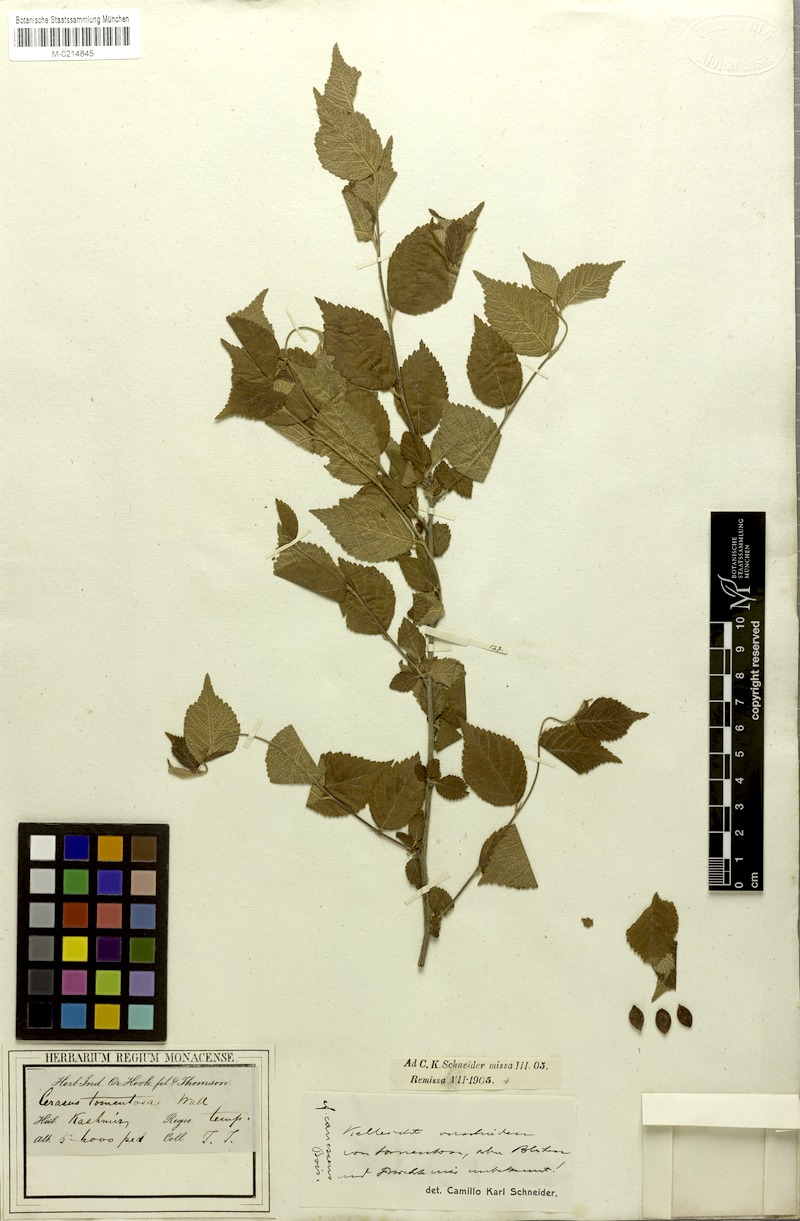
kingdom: Plantae
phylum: Tracheophyta
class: Magnoliopsida
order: Rosales
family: Rosaceae
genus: Prunus
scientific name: Prunus tomentosa
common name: Nanking cherry
